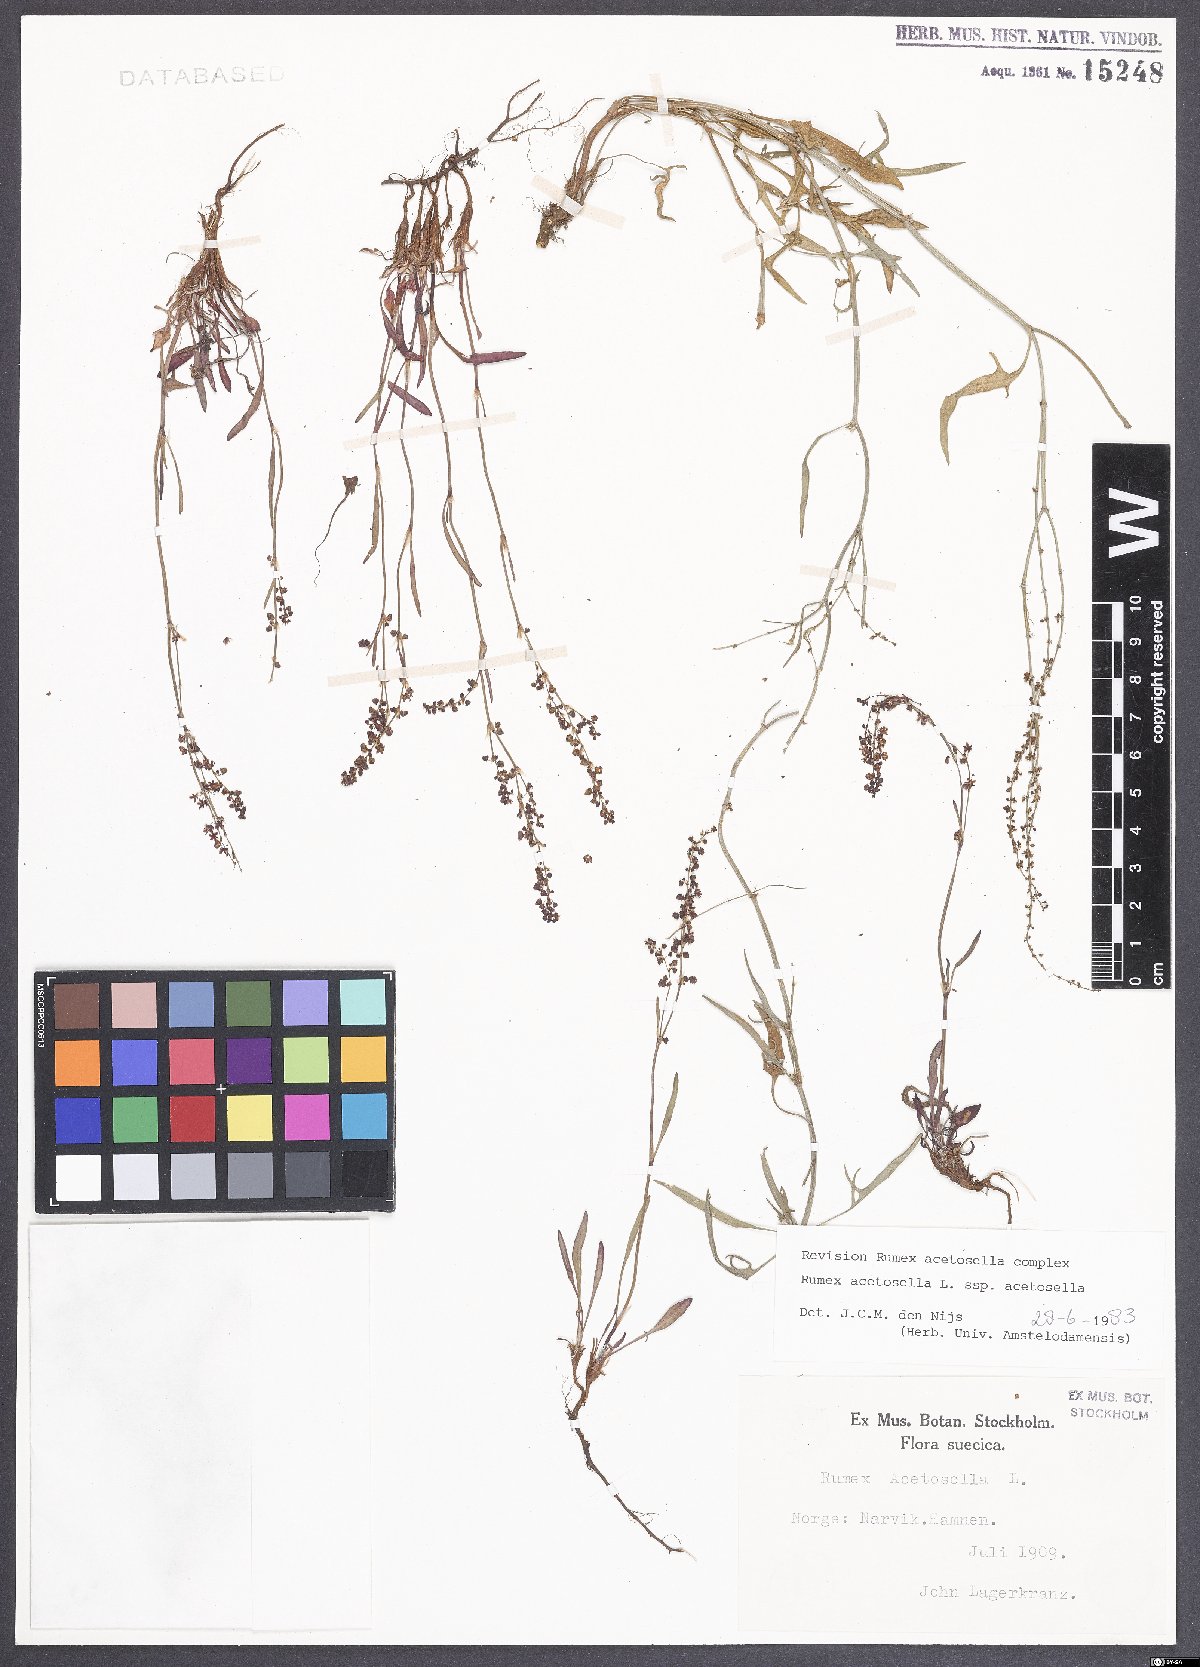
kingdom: Plantae
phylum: Tracheophyta
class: Magnoliopsida
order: Caryophyllales
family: Polygonaceae
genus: Rumex
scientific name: Rumex acetosella
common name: Common sheep sorrel
